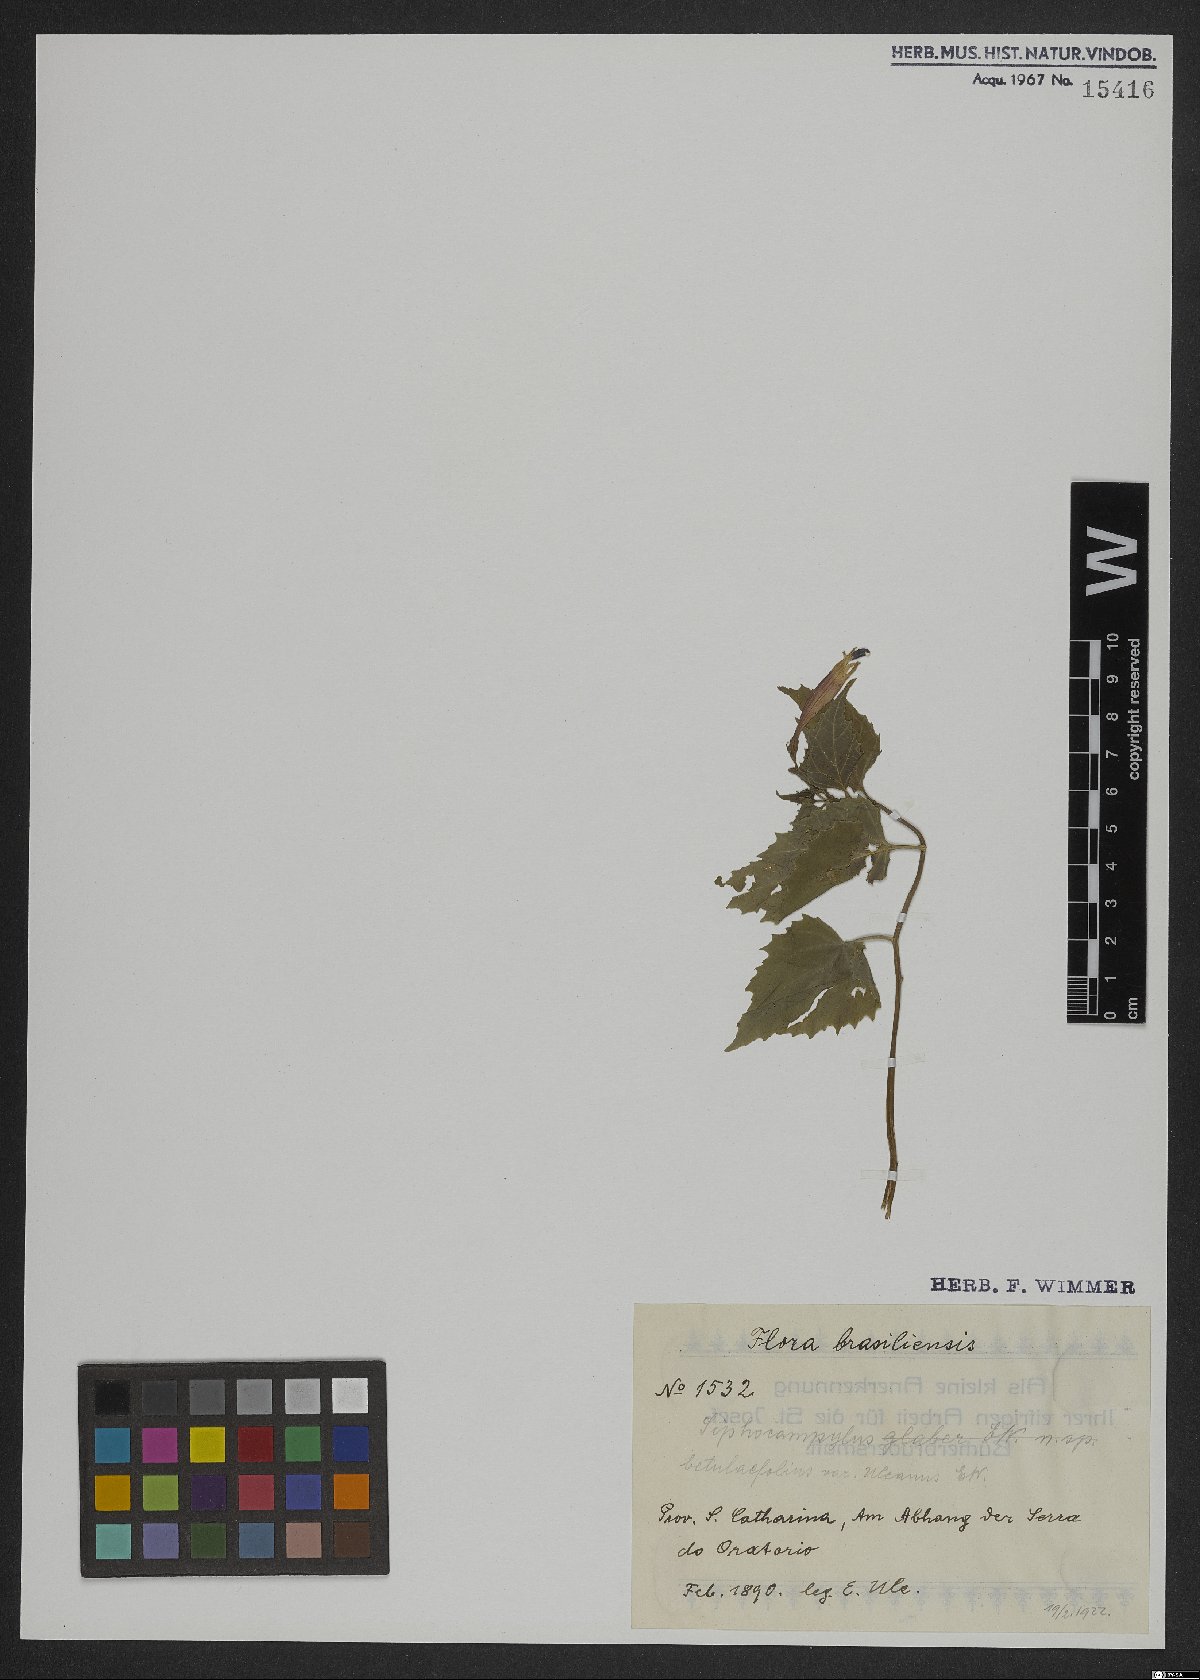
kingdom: Plantae
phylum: Tracheophyta
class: Magnoliopsida
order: Asterales
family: Campanulaceae
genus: Siphocampylus
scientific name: Siphocampylus betulifolius
